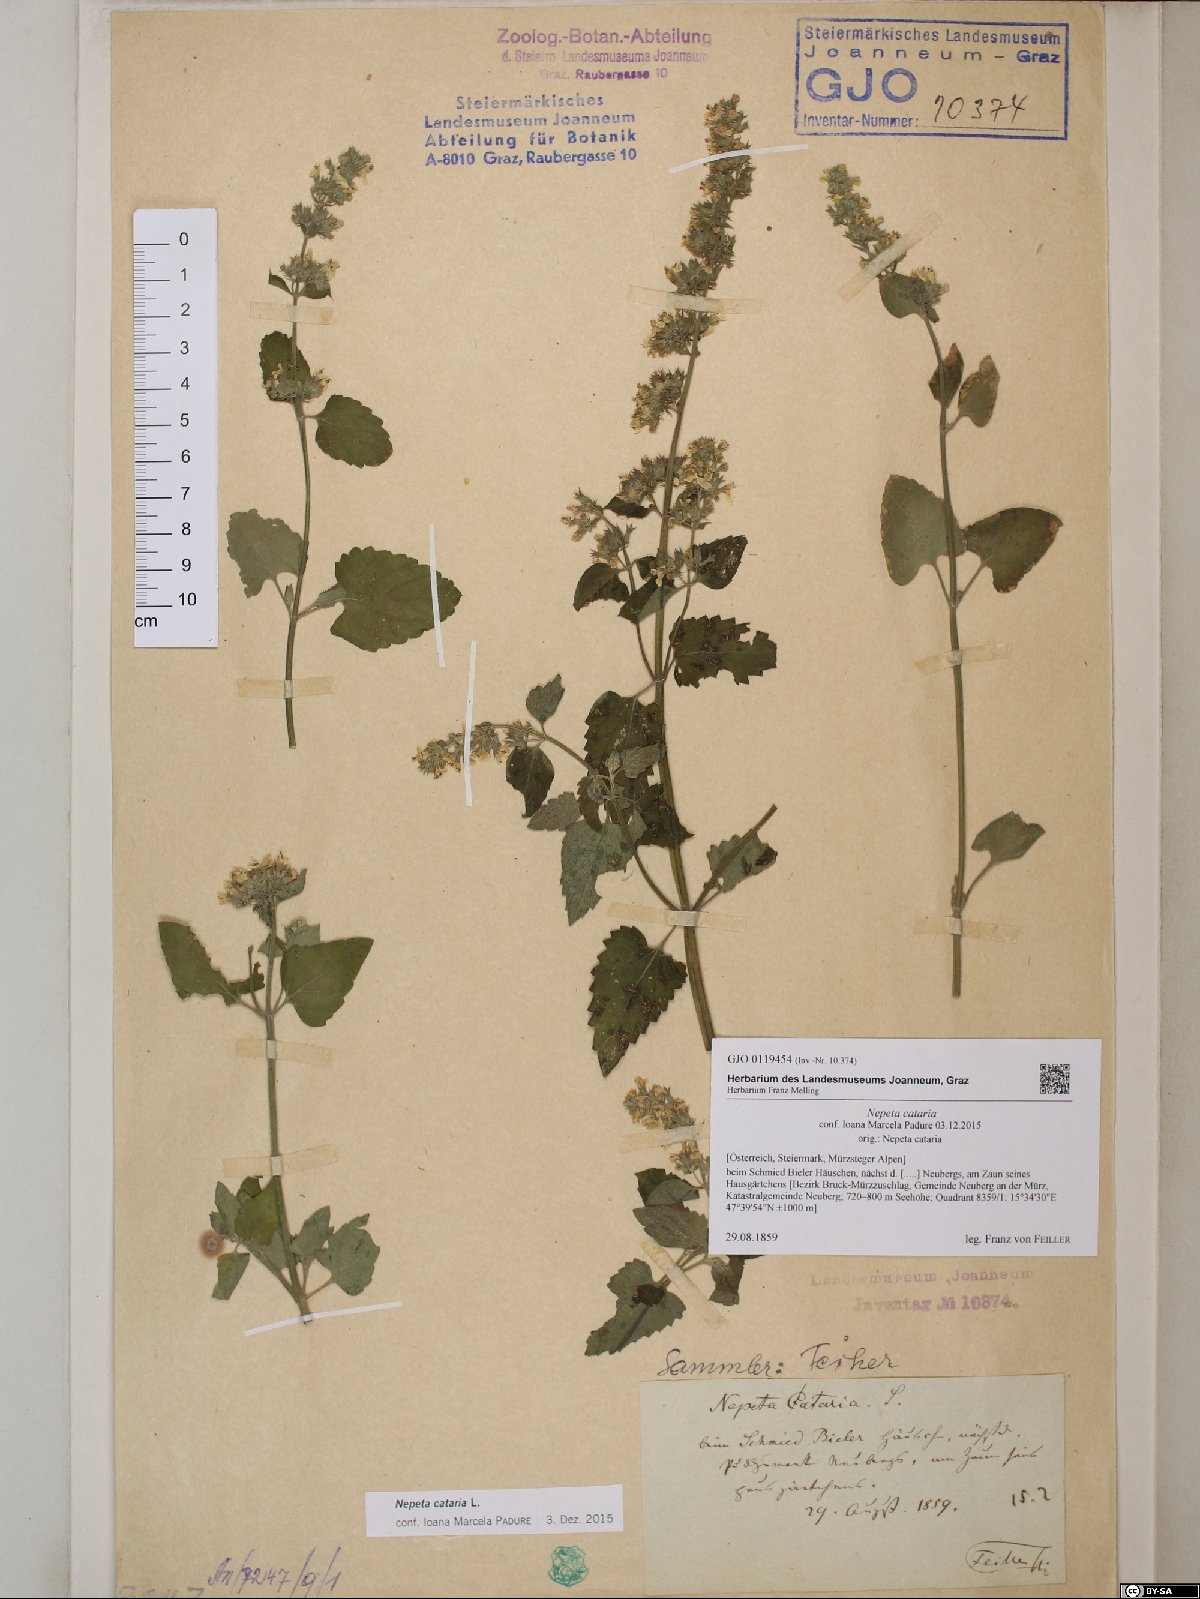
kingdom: Plantae
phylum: Tracheophyta
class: Magnoliopsida
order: Lamiales
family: Lamiaceae
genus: Nepeta
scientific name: Nepeta cataria
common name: Catnip
